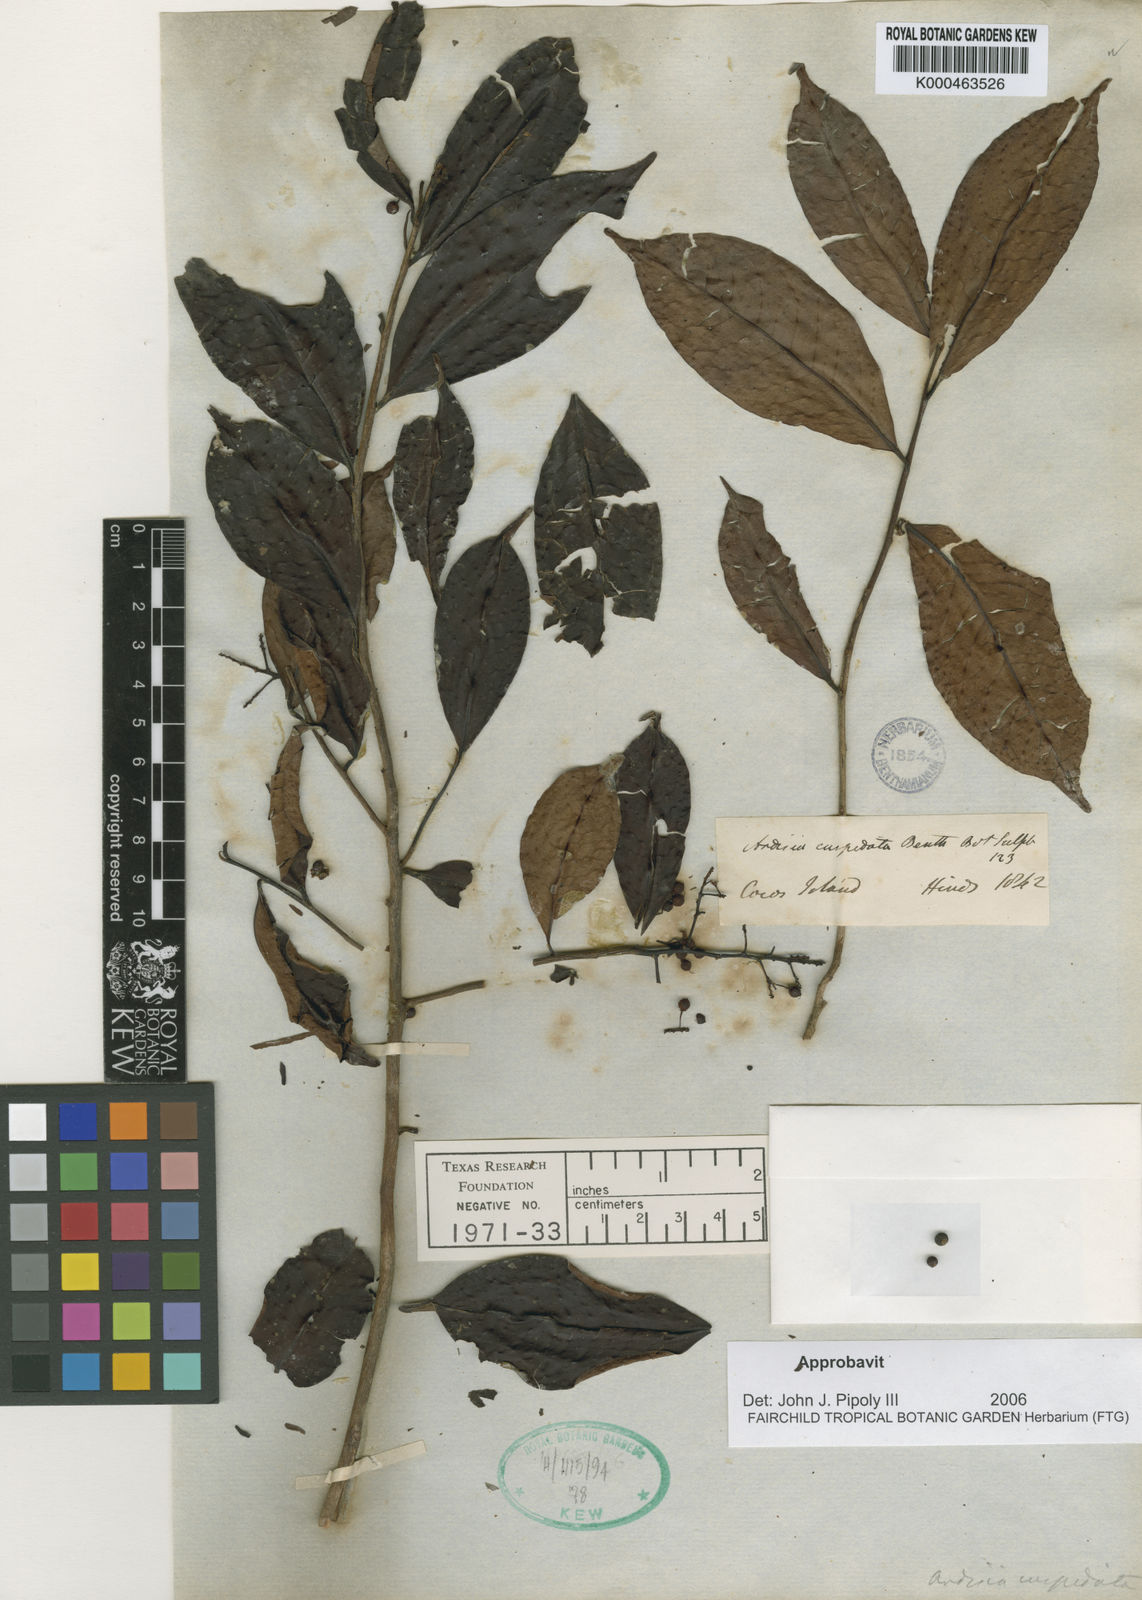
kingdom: Plantae
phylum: Tracheophyta
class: Magnoliopsida
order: Ericales
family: Primulaceae
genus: Ardisia
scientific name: Ardisia cuspidata
